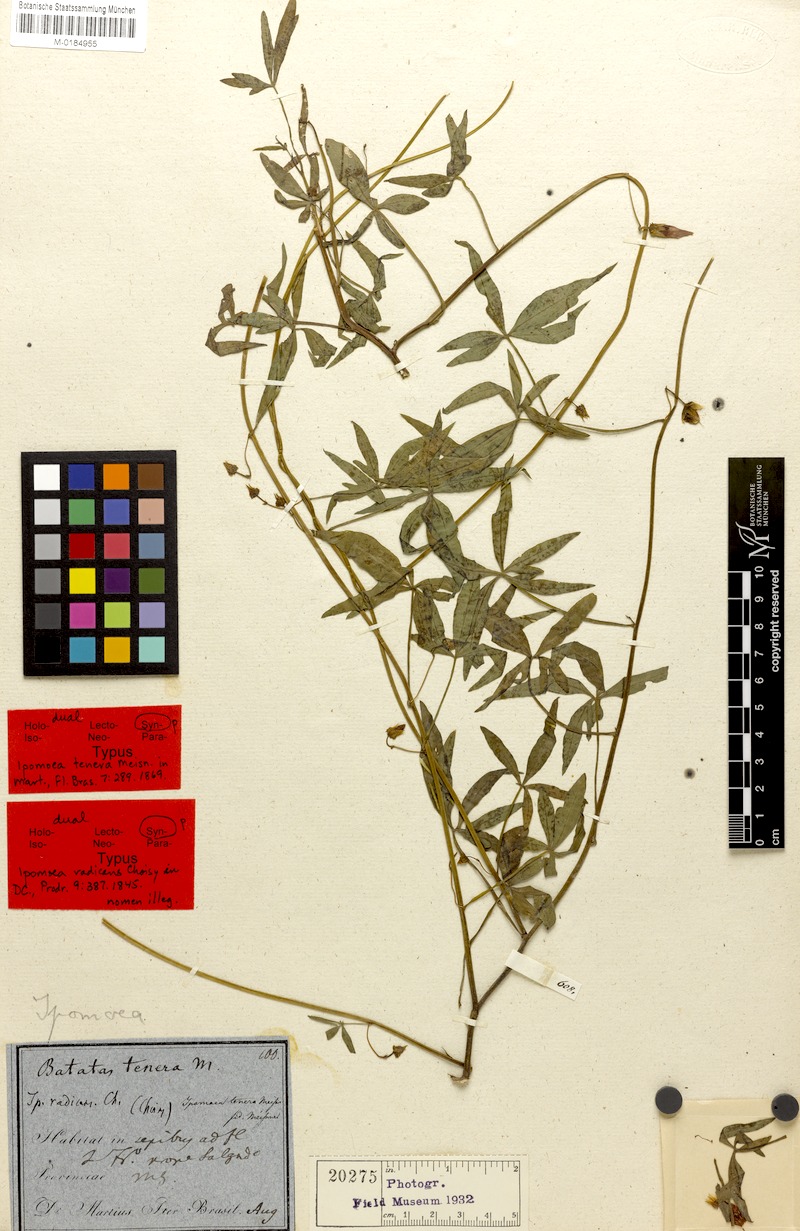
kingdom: Plantae
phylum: Tracheophyta
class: Magnoliopsida
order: Solanales
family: Convolvulaceae
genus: Ipomoea
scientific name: Ipomoea tenera
